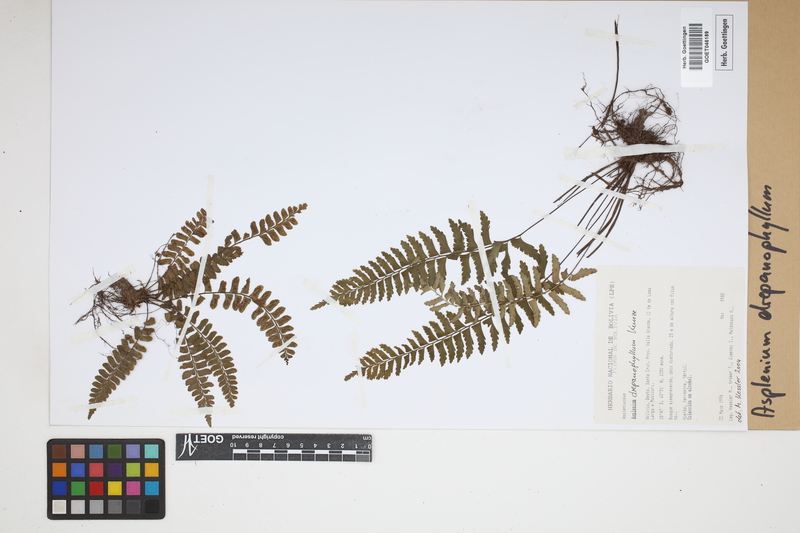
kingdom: Plantae
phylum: Tracheophyta
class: Polypodiopsida
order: Polypodiales
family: Aspleniaceae
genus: Asplenium
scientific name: Asplenium drepanophyllum
